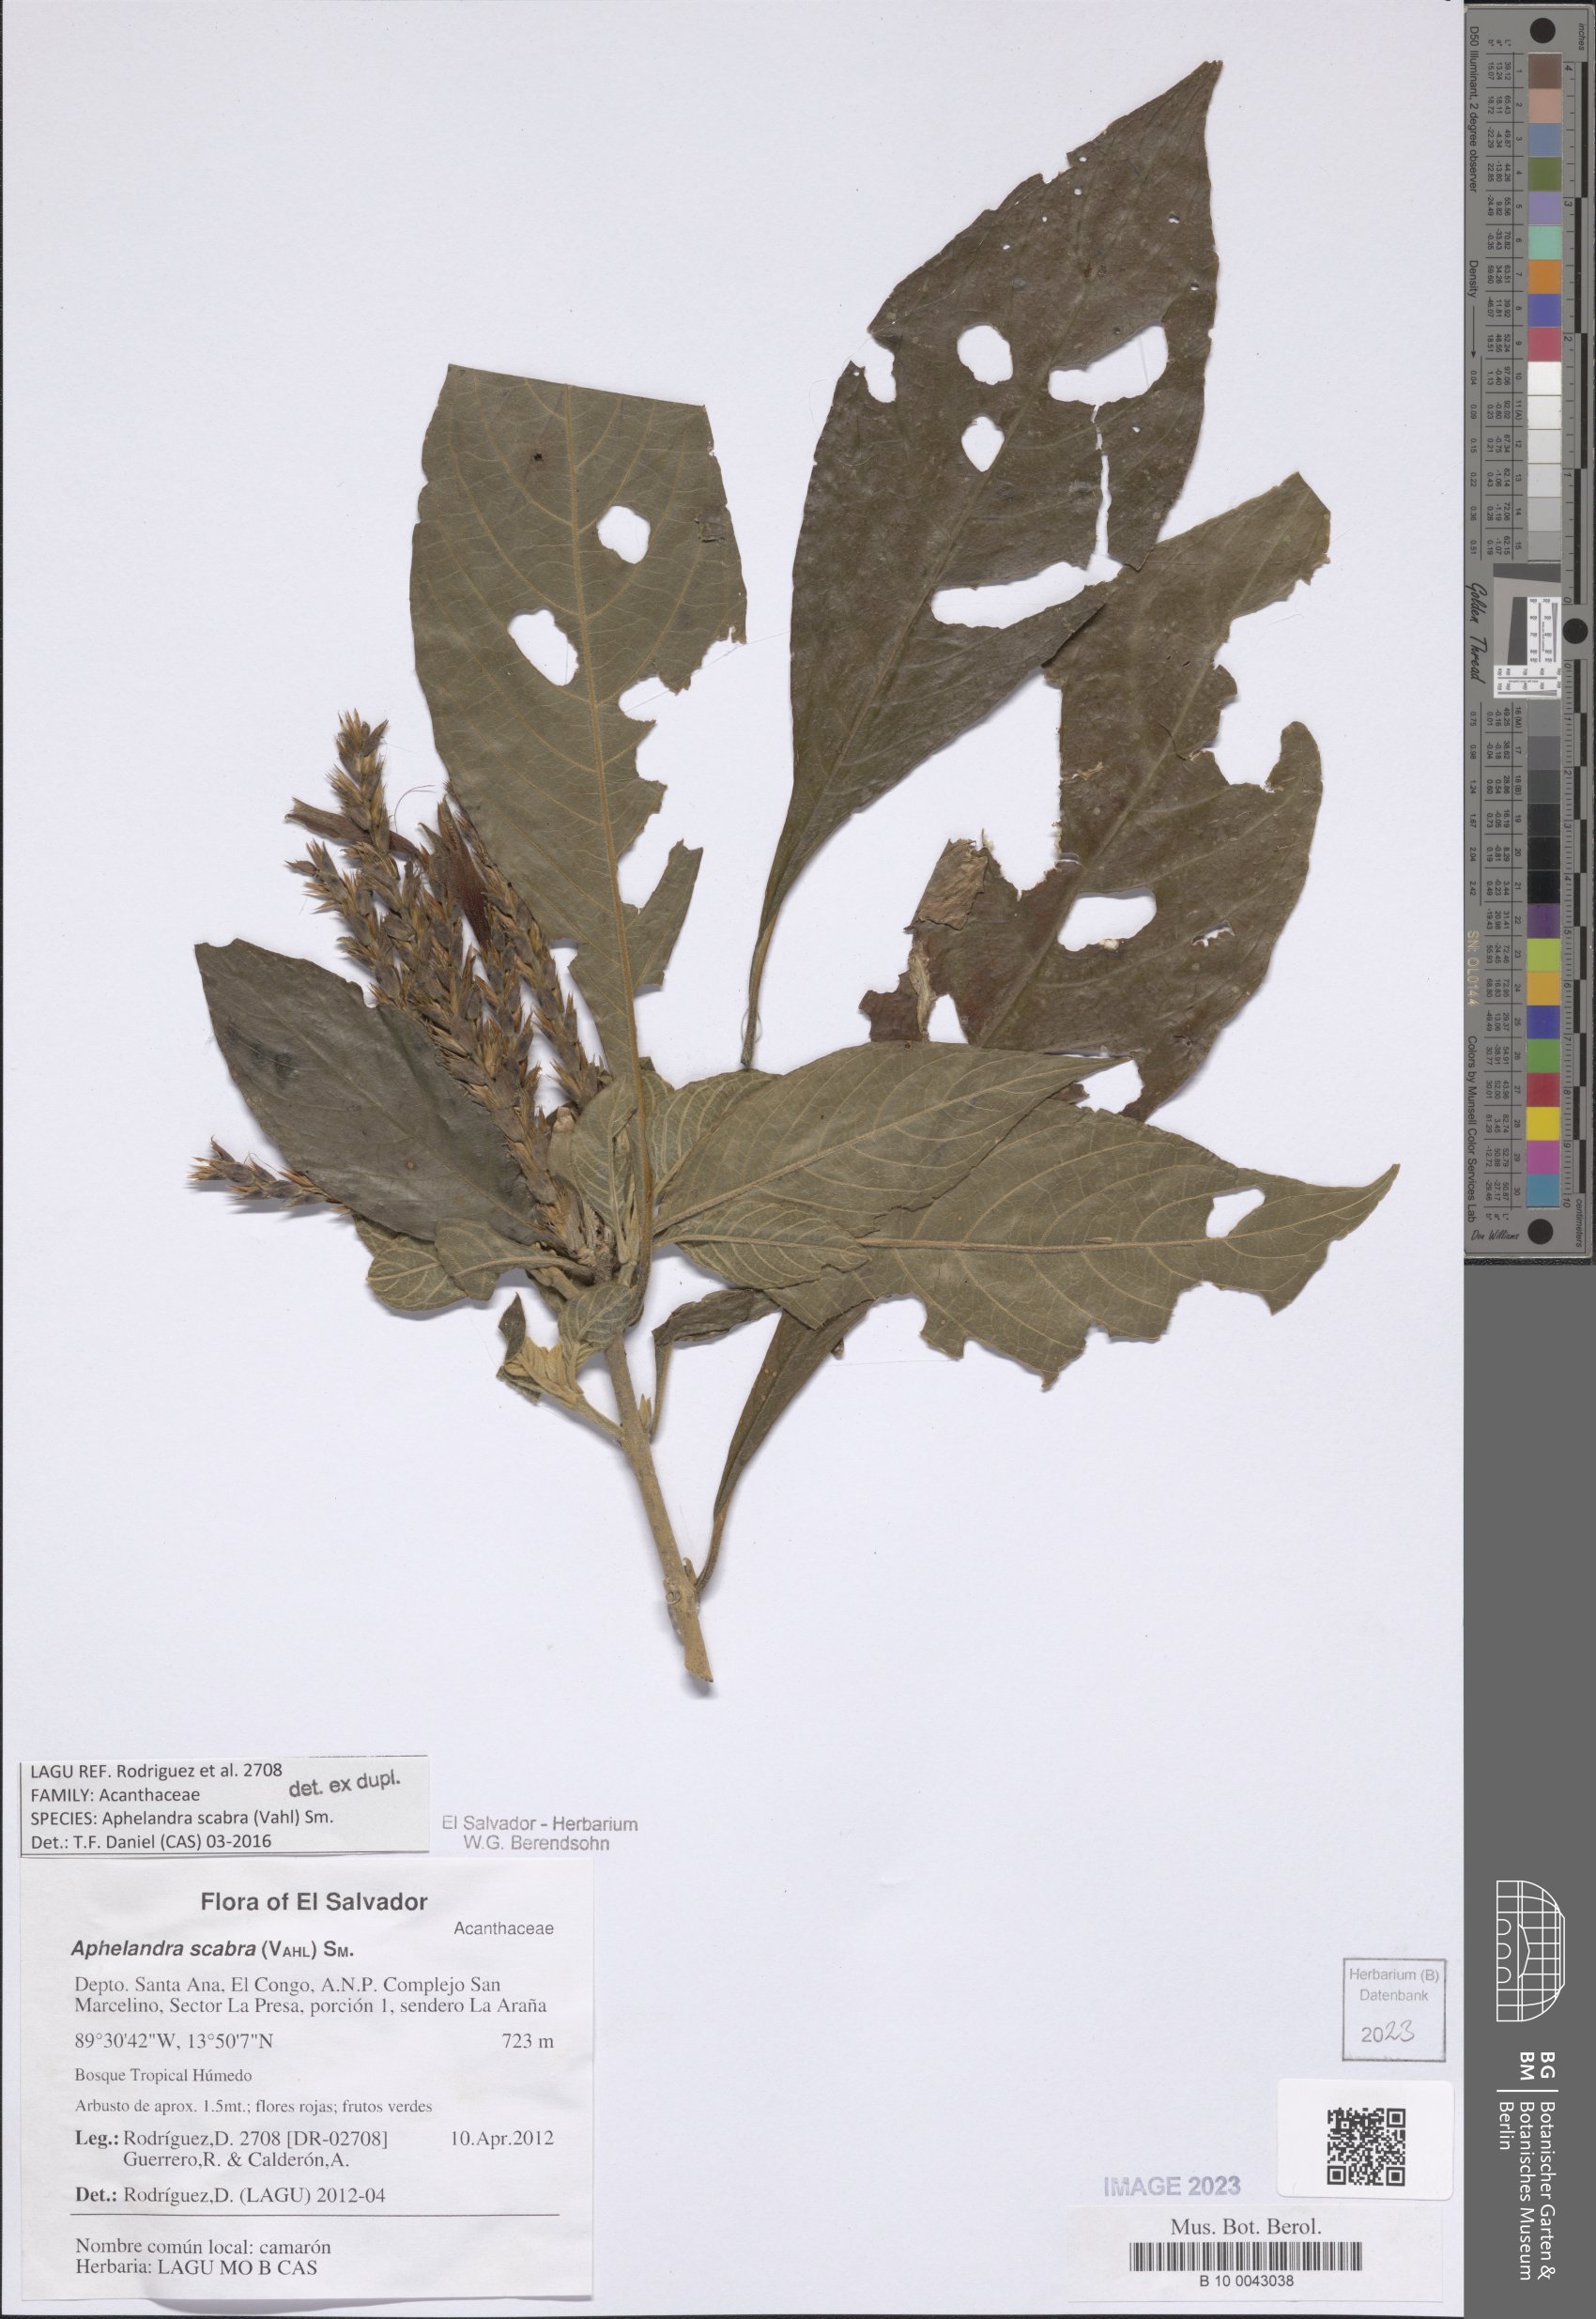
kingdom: Plantae
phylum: Tracheophyta
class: Magnoliopsida
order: Lamiales
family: Acanthaceae
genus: Aphelandra
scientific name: Aphelandra scabra
